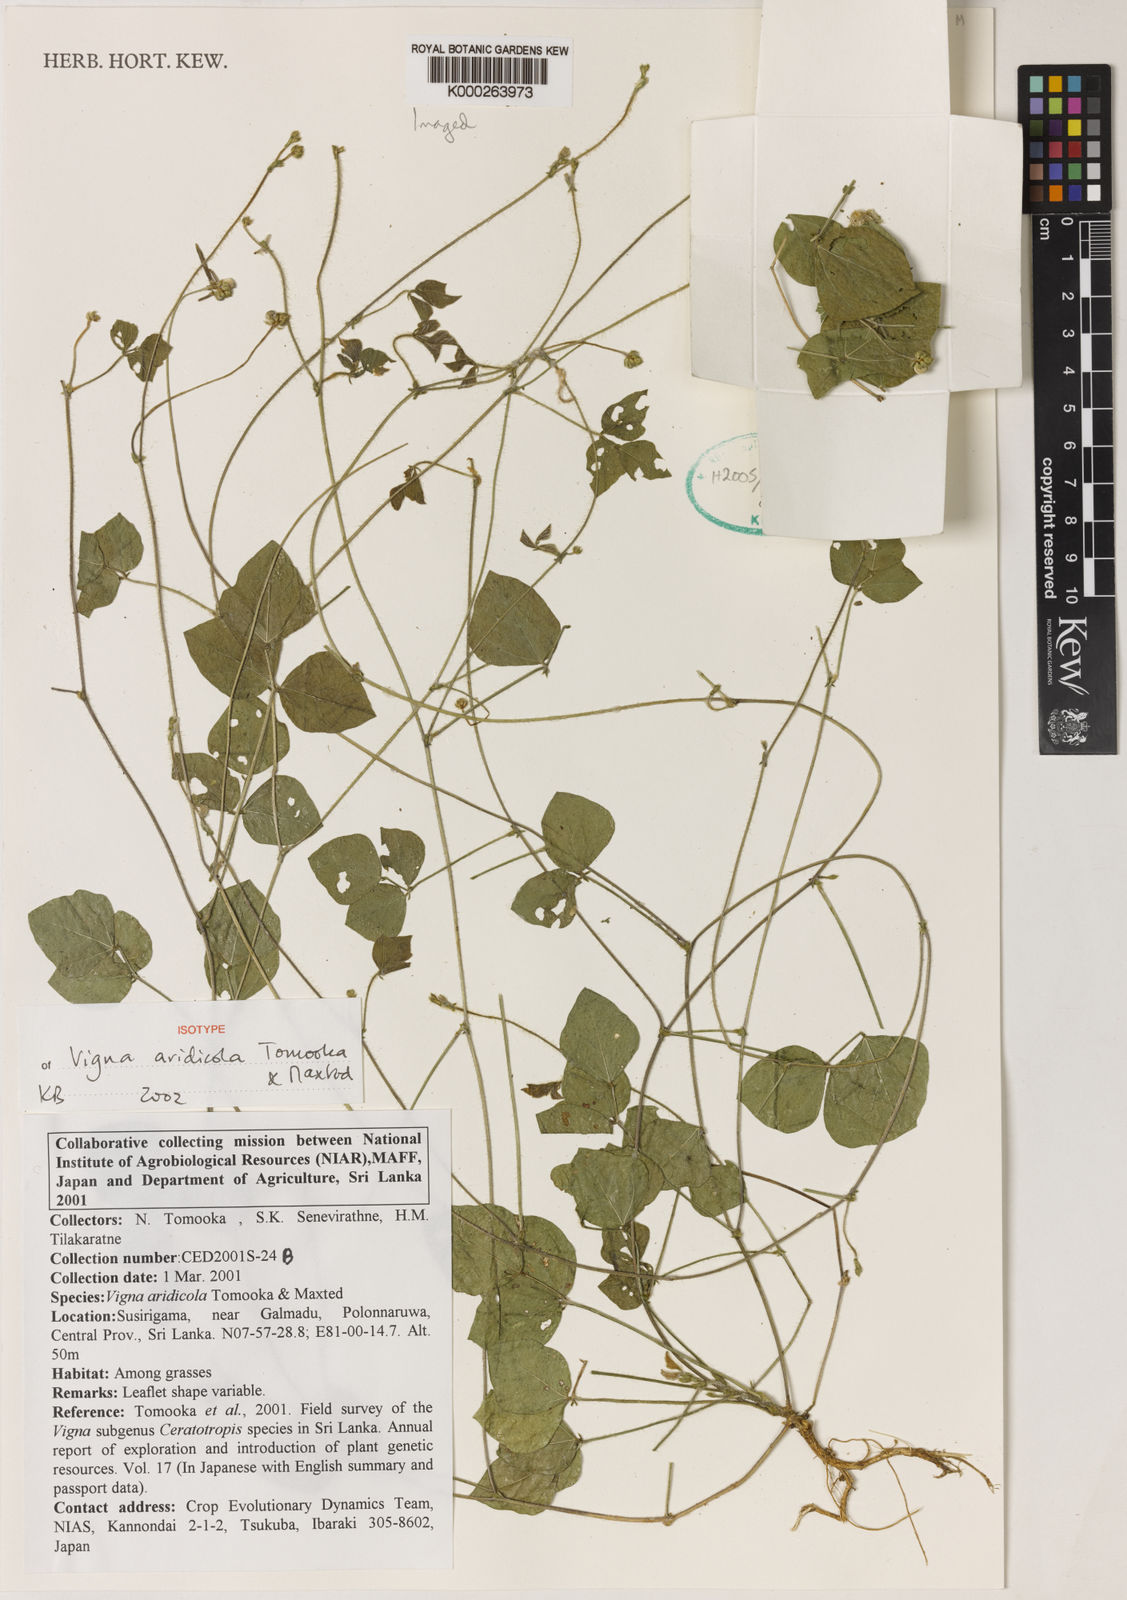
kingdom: Plantae
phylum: Tracheophyta
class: Magnoliopsida
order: Fabales
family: Fabaceae
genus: Vigna
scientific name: Vigna
